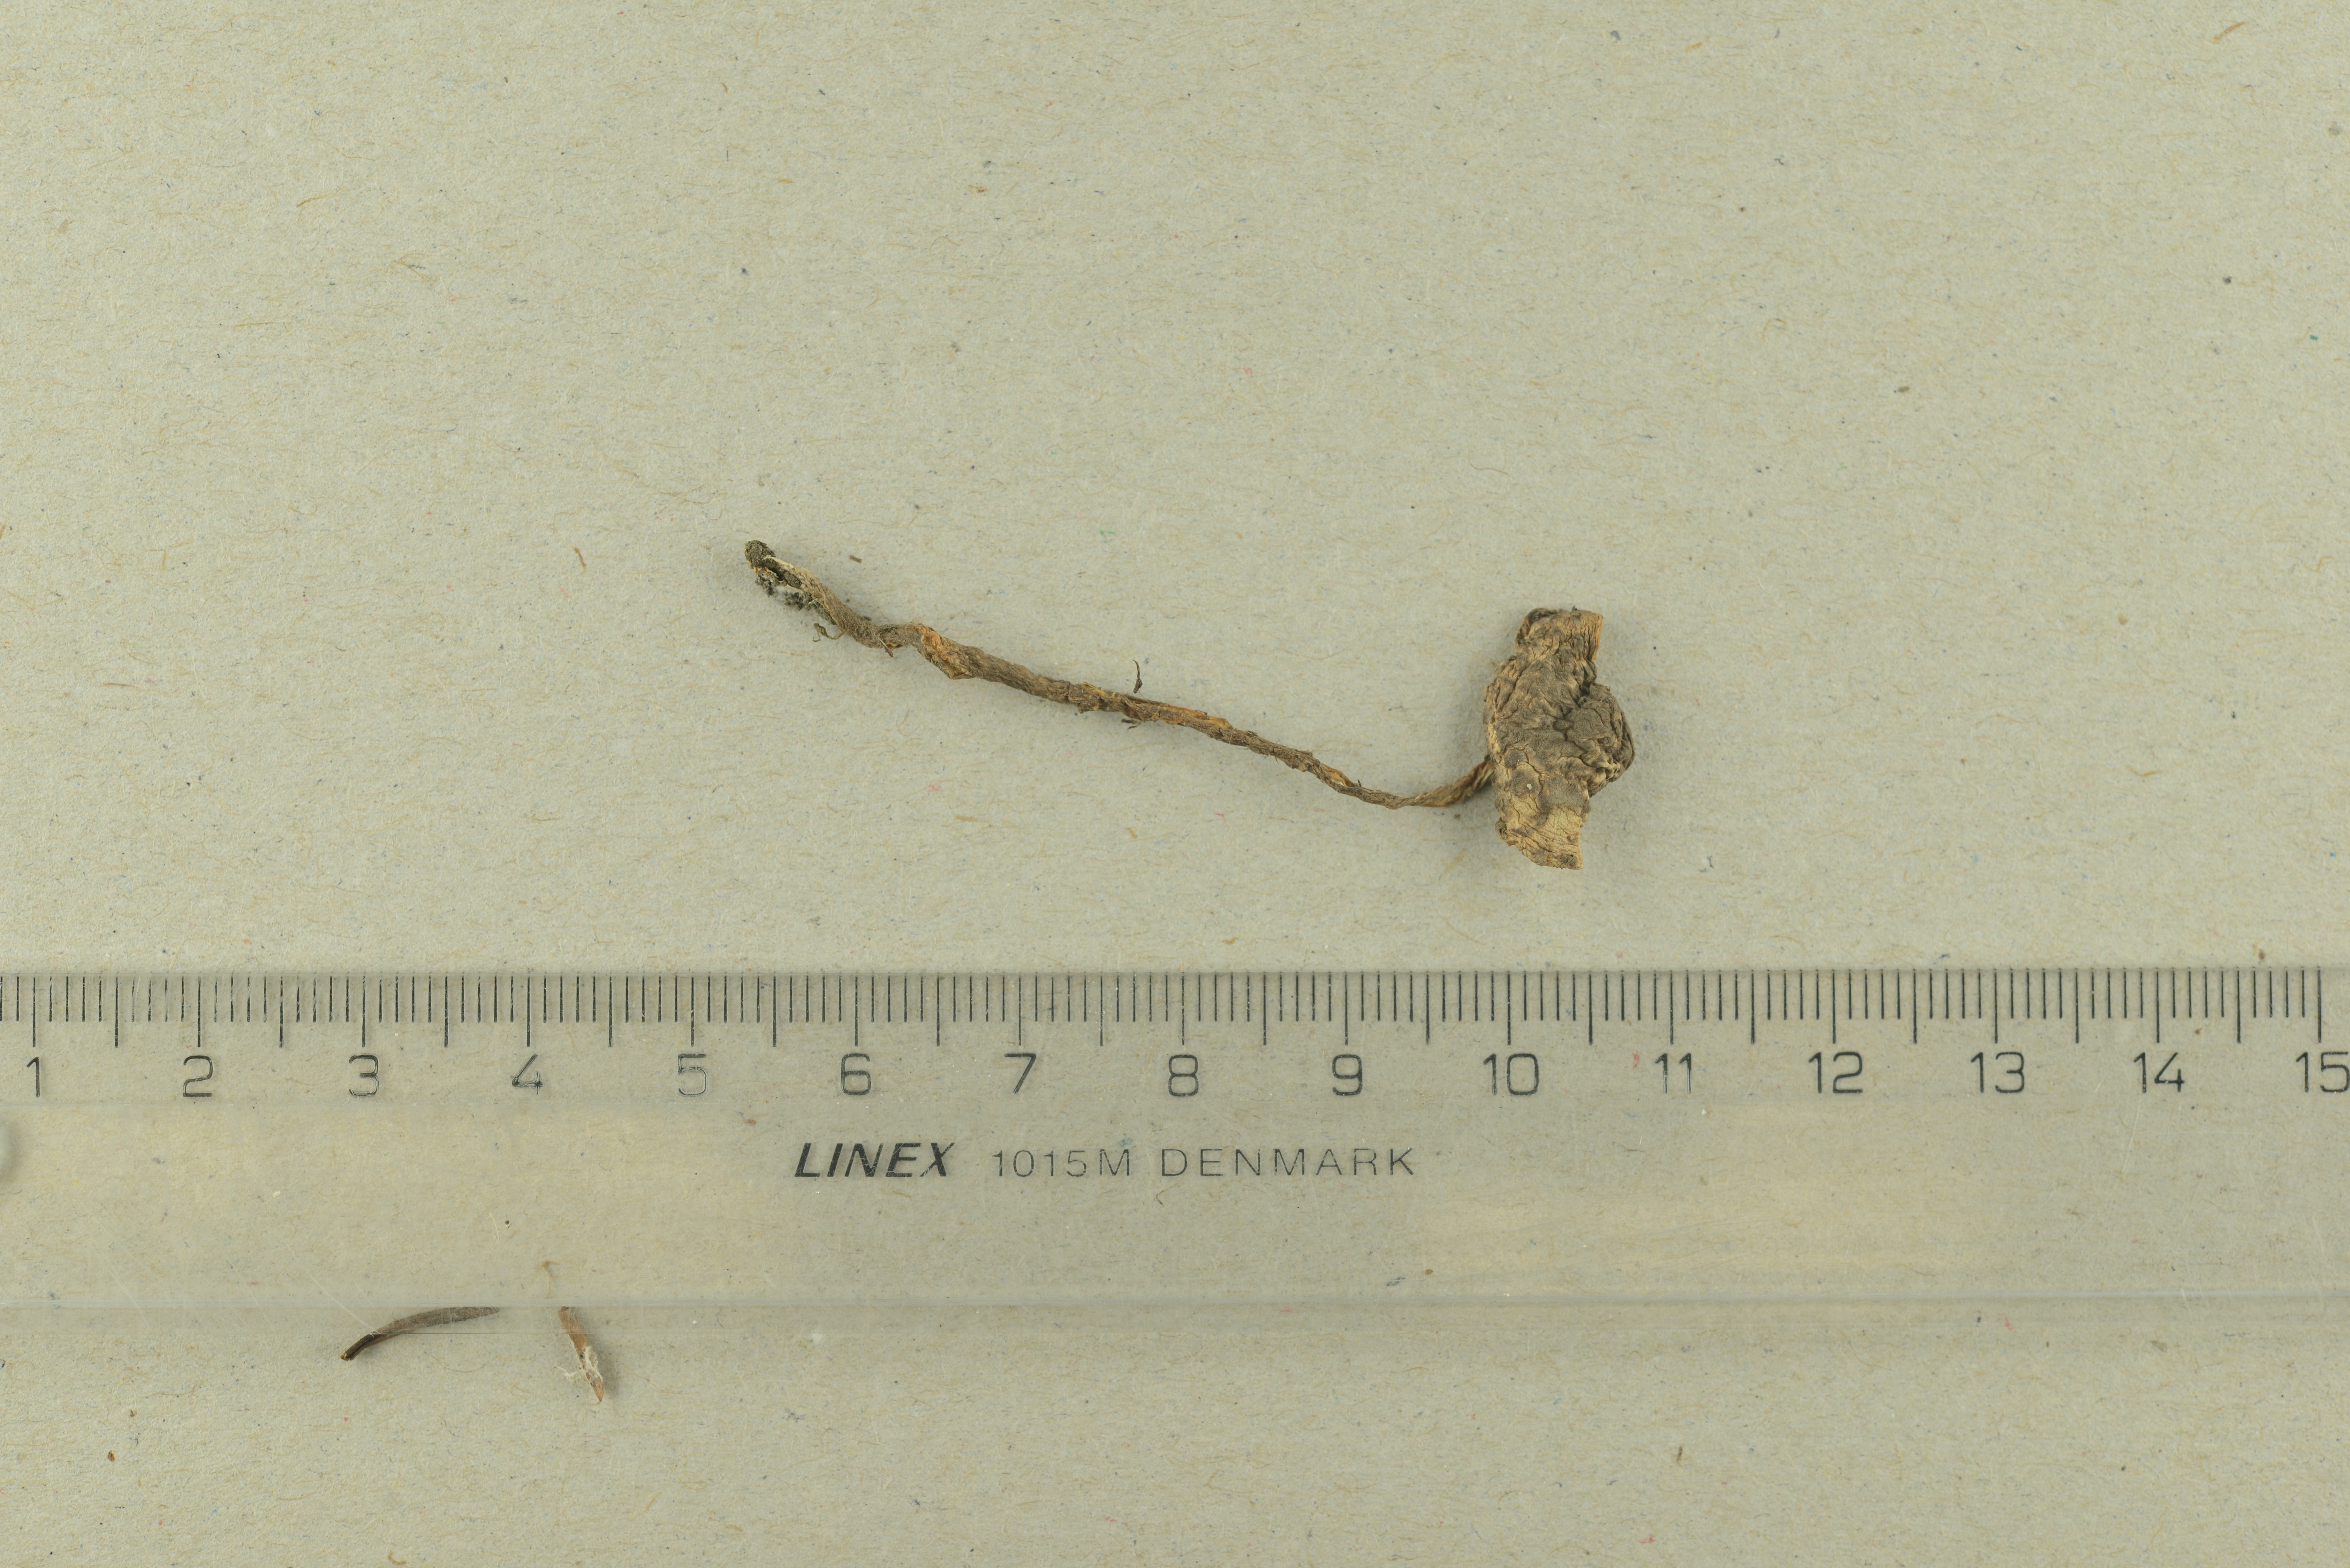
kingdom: Fungi
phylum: Basidiomycota
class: Agaricomycetes
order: Agaricales
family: Agaricaceae
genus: Lepiota
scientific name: Lepiota fuscovinacea
